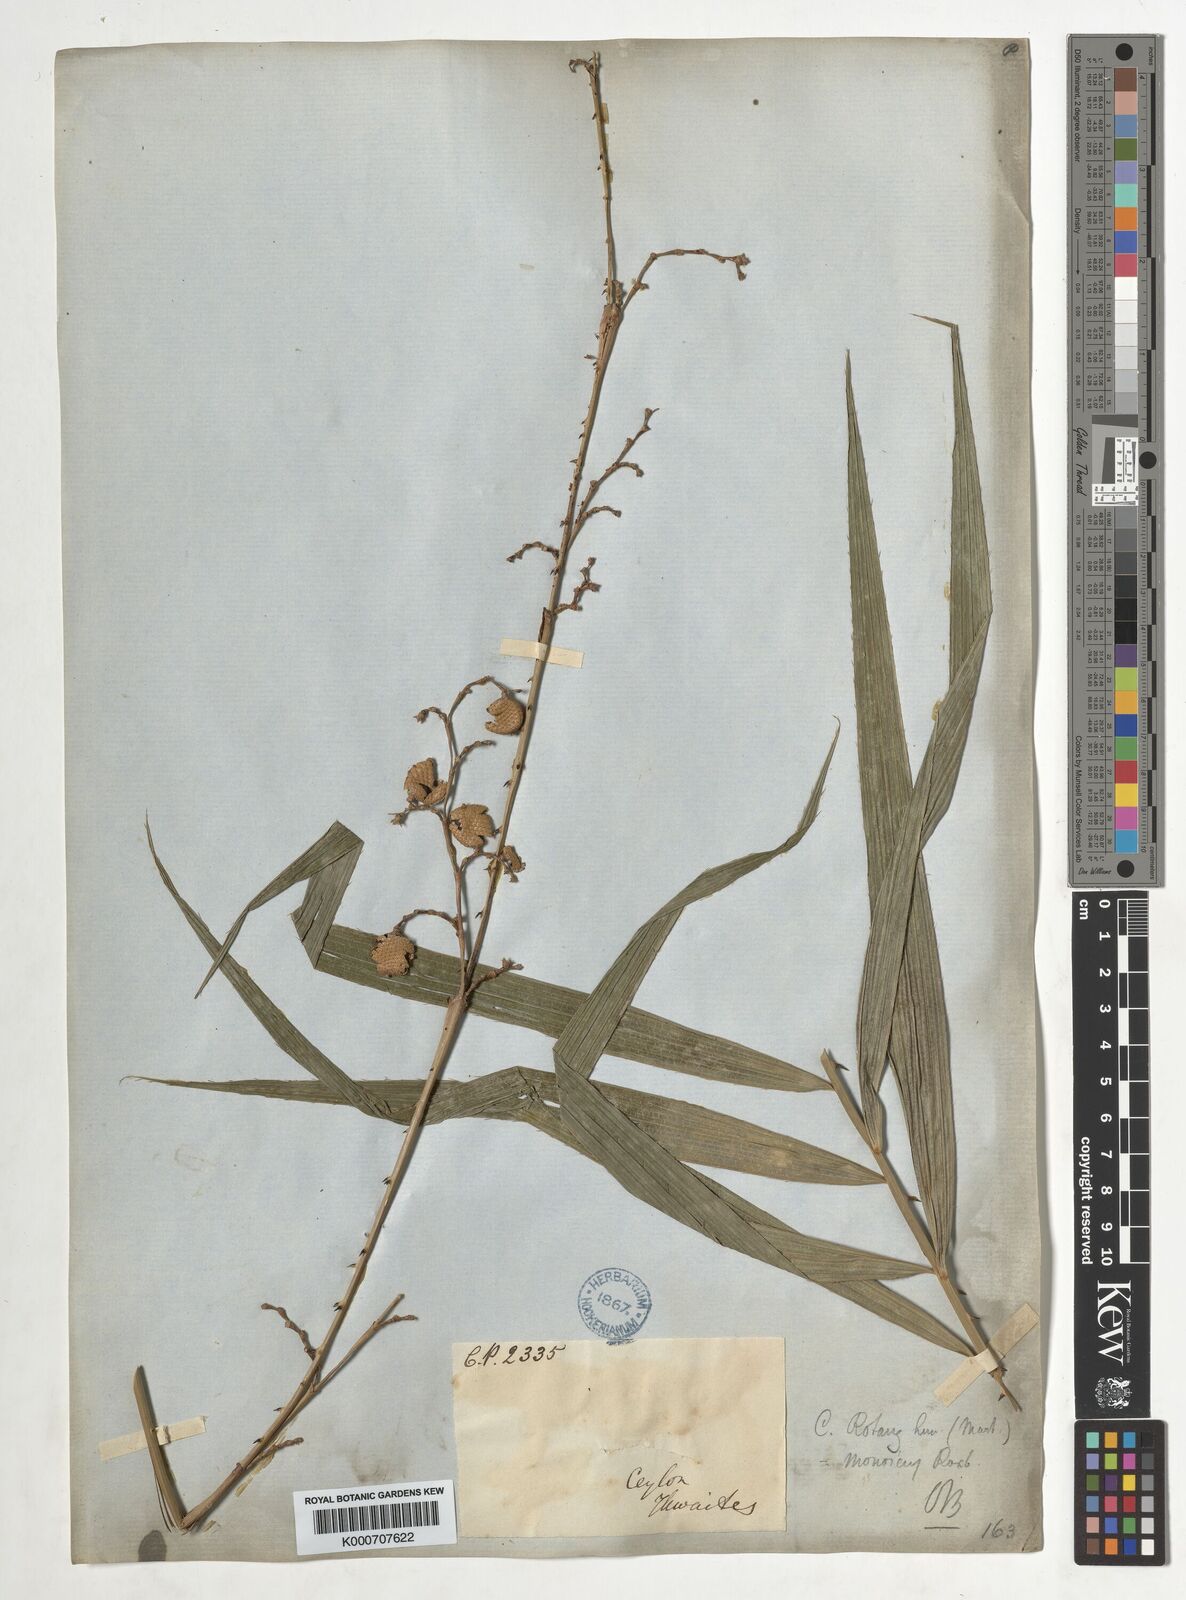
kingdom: Plantae
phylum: Tracheophyta
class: Liliopsida
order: Arecales
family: Arecaceae
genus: Calamus
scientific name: Calamus rotang
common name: Rattan cane
